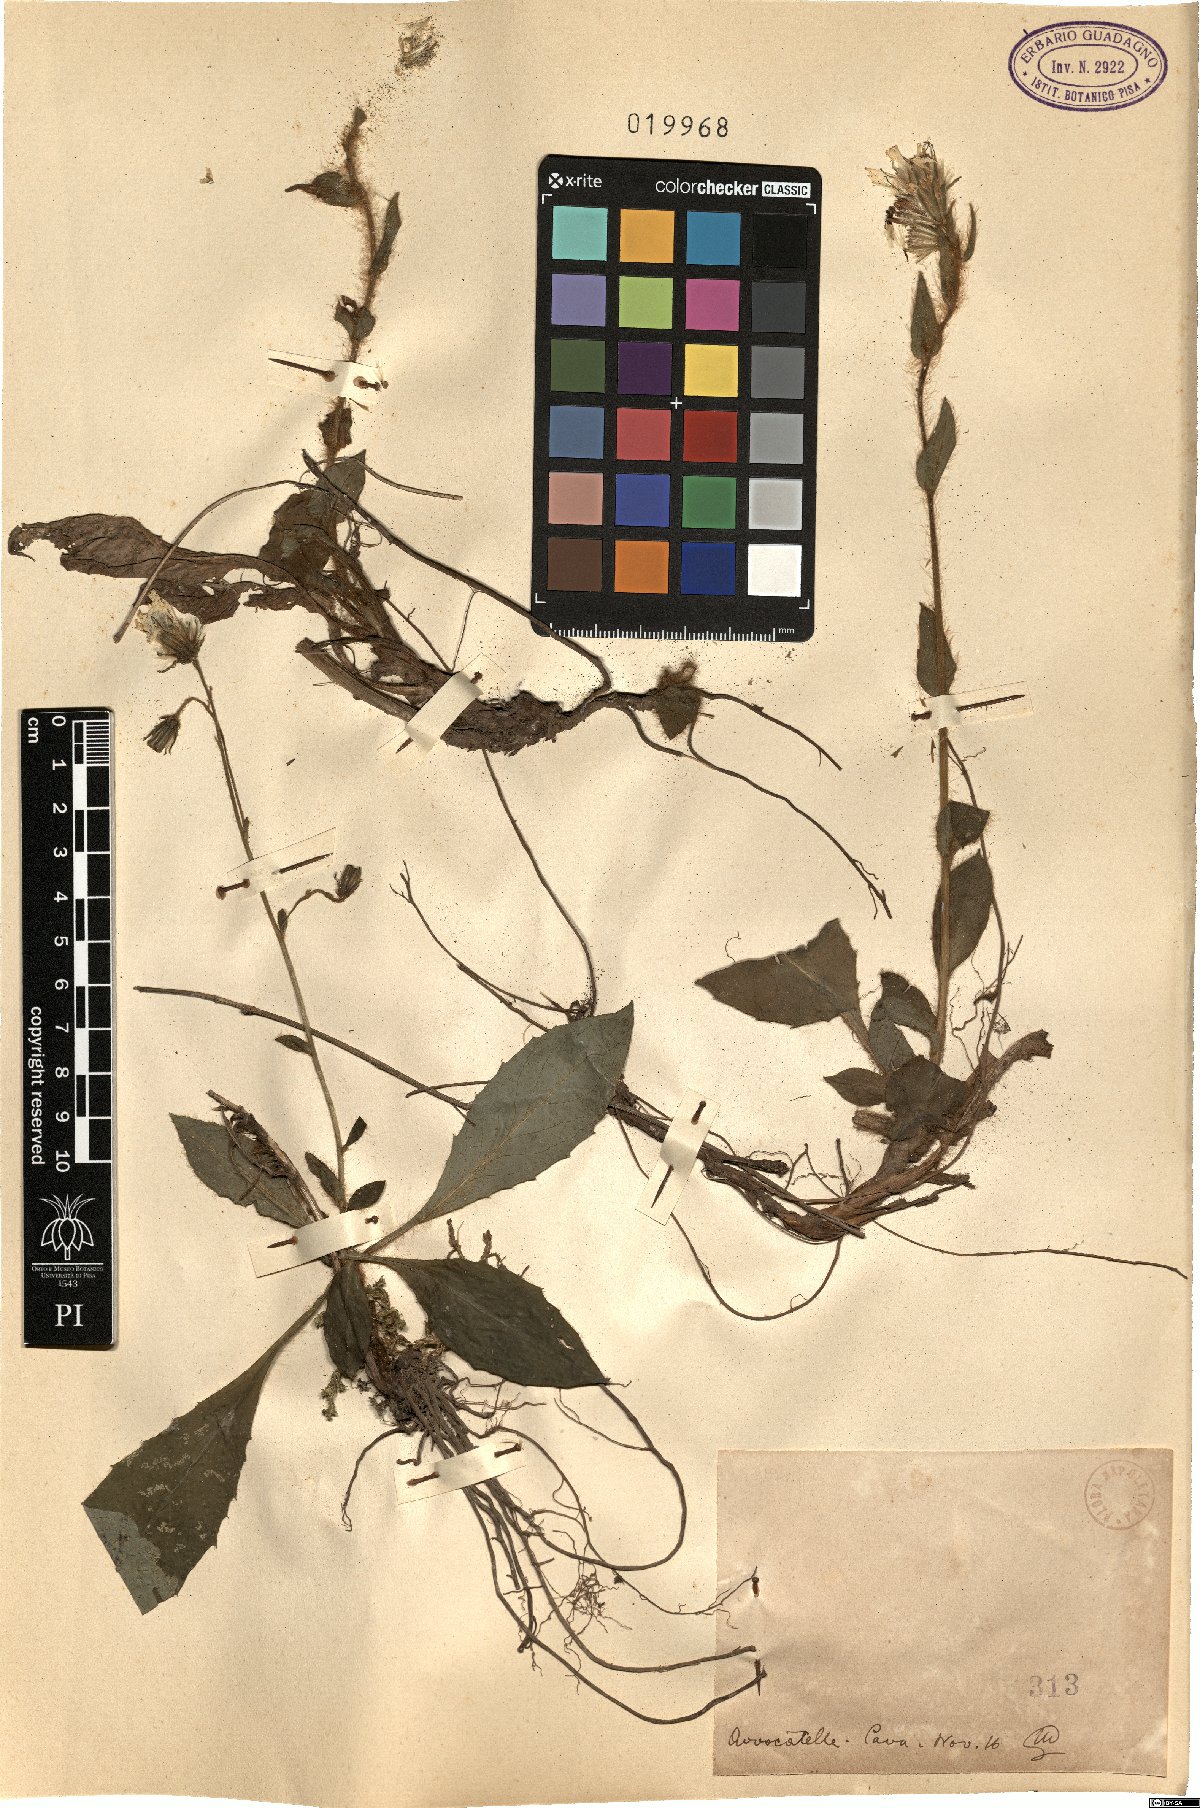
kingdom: Plantae
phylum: Tracheophyta
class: Magnoliopsida
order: Asterales
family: Asteraceae
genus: Hieracium
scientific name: Hieracium
